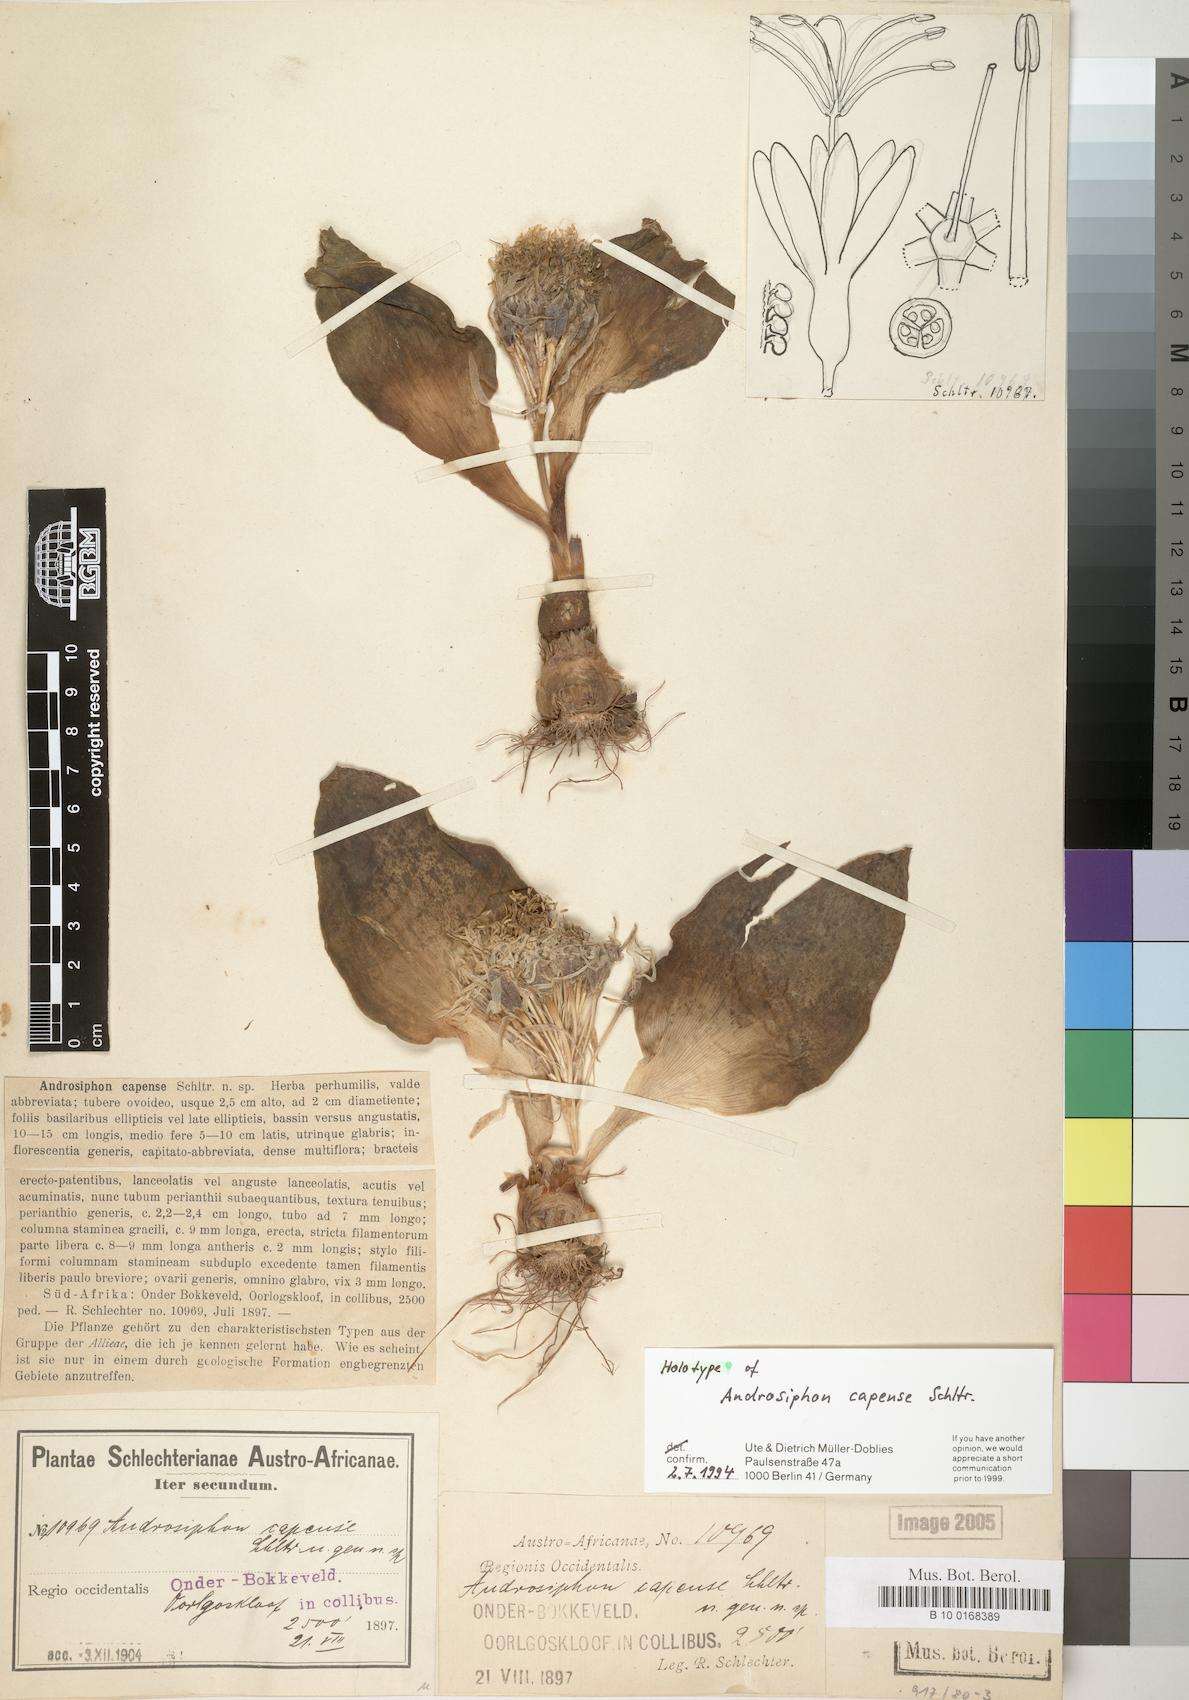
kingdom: Plantae
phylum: Tracheophyta
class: Liliopsida
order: Asparagales
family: Asparagaceae
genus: Daubenya
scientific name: Daubenya capensis
